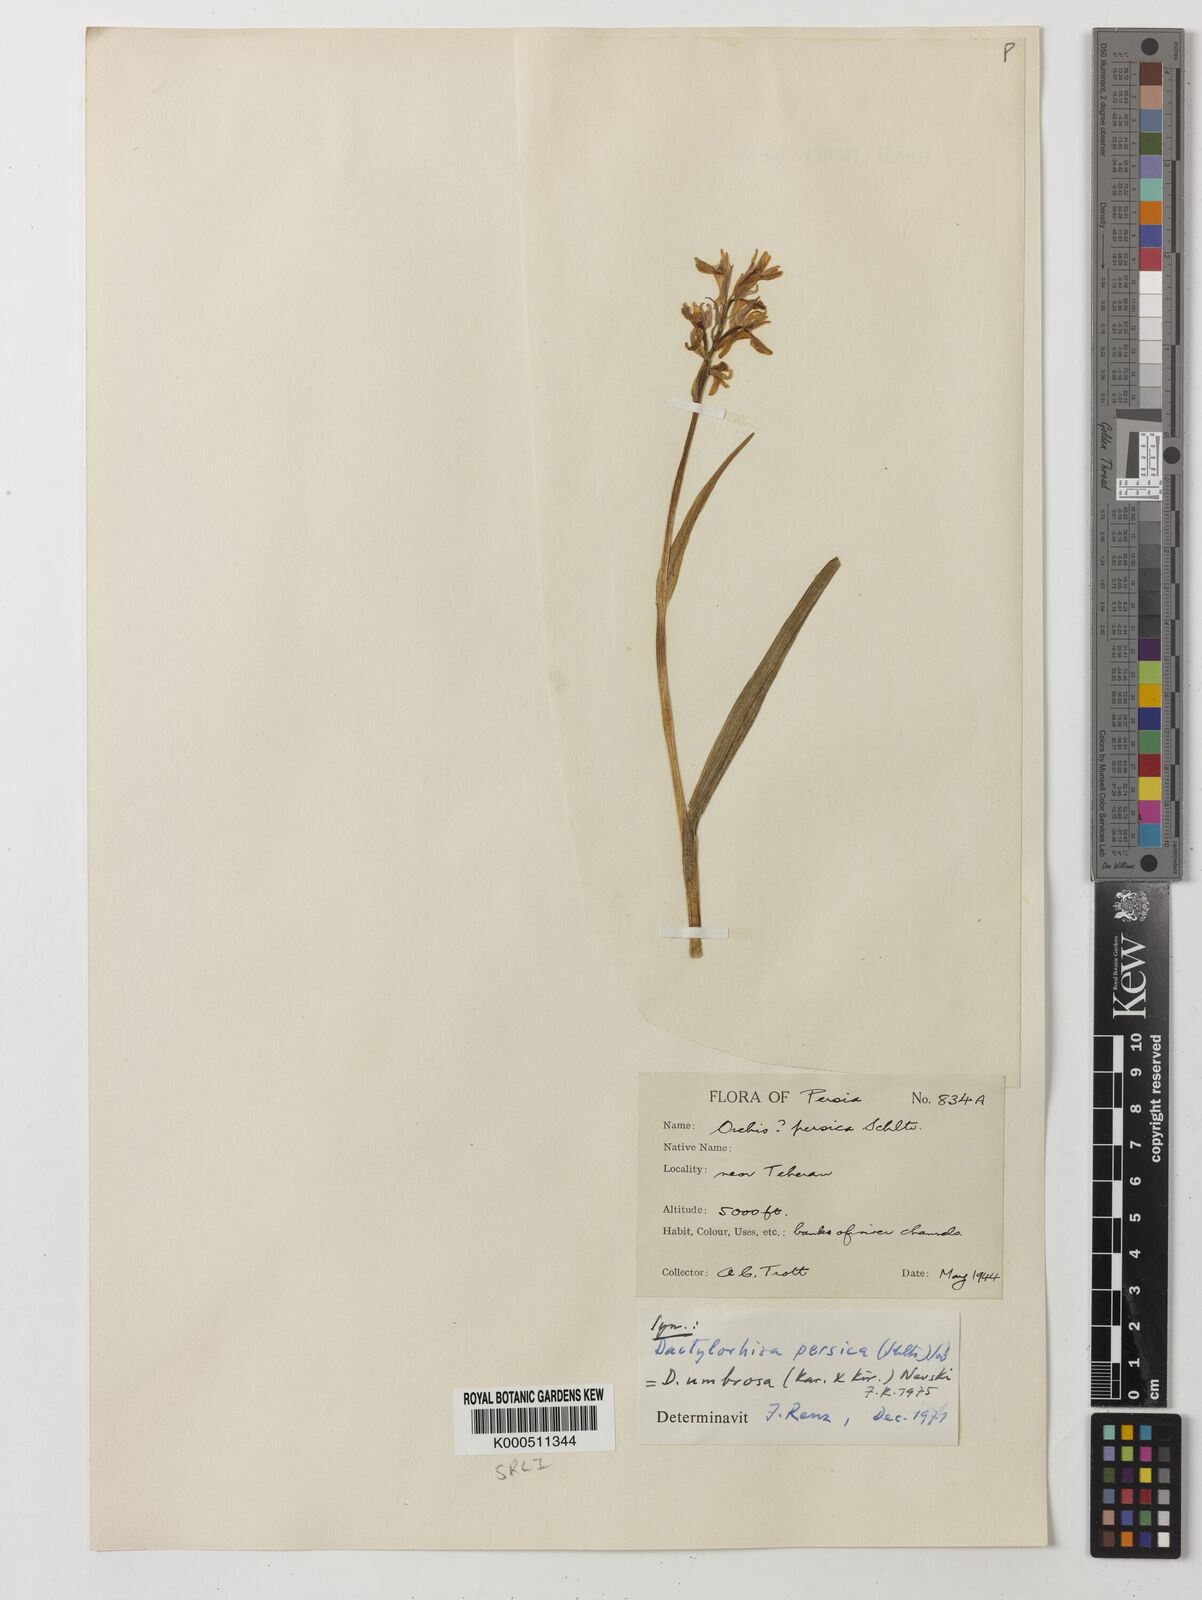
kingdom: Plantae
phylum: Tracheophyta
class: Liliopsida
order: Asparagales
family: Orchidaceae
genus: Dactylorhiza
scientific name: Dactylorhiza
